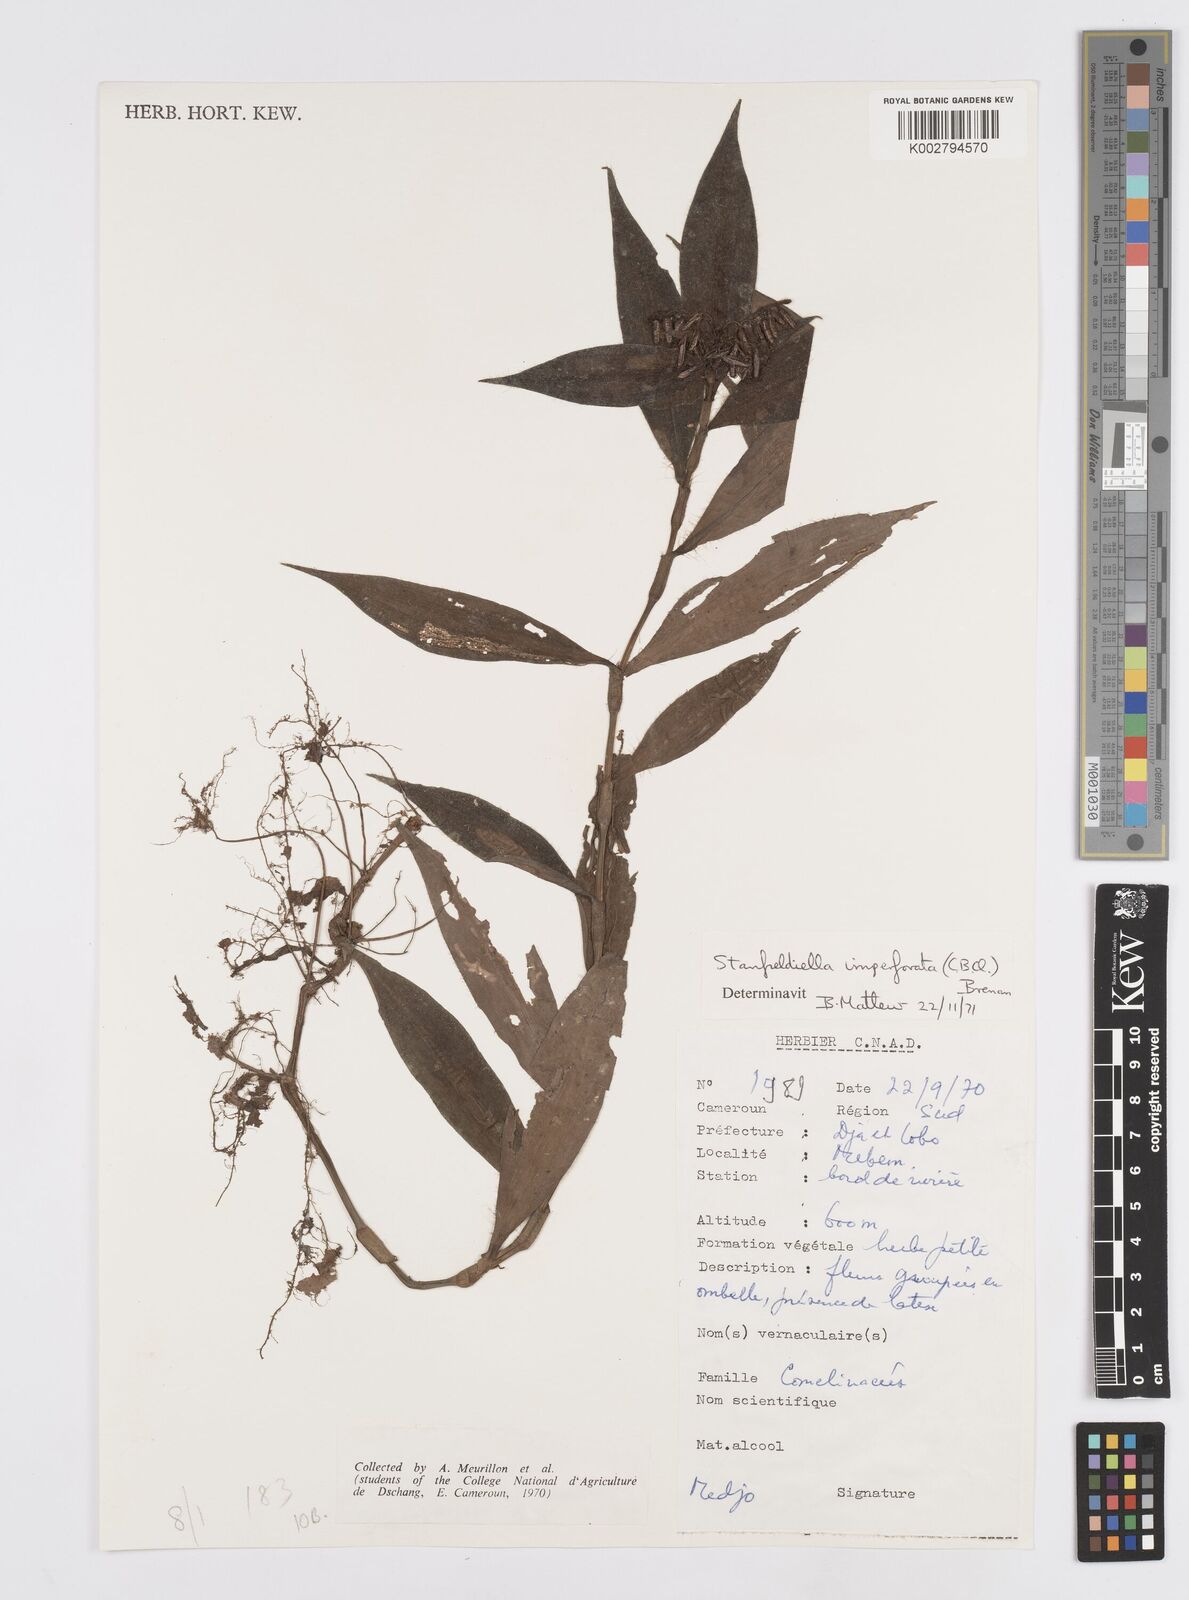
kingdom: Plantae
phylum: Tracheophyta
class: Liliopsida
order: Commelinales
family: Commelinaceae
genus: Stanfieldiella
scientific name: Stanfieldiella imperforata
